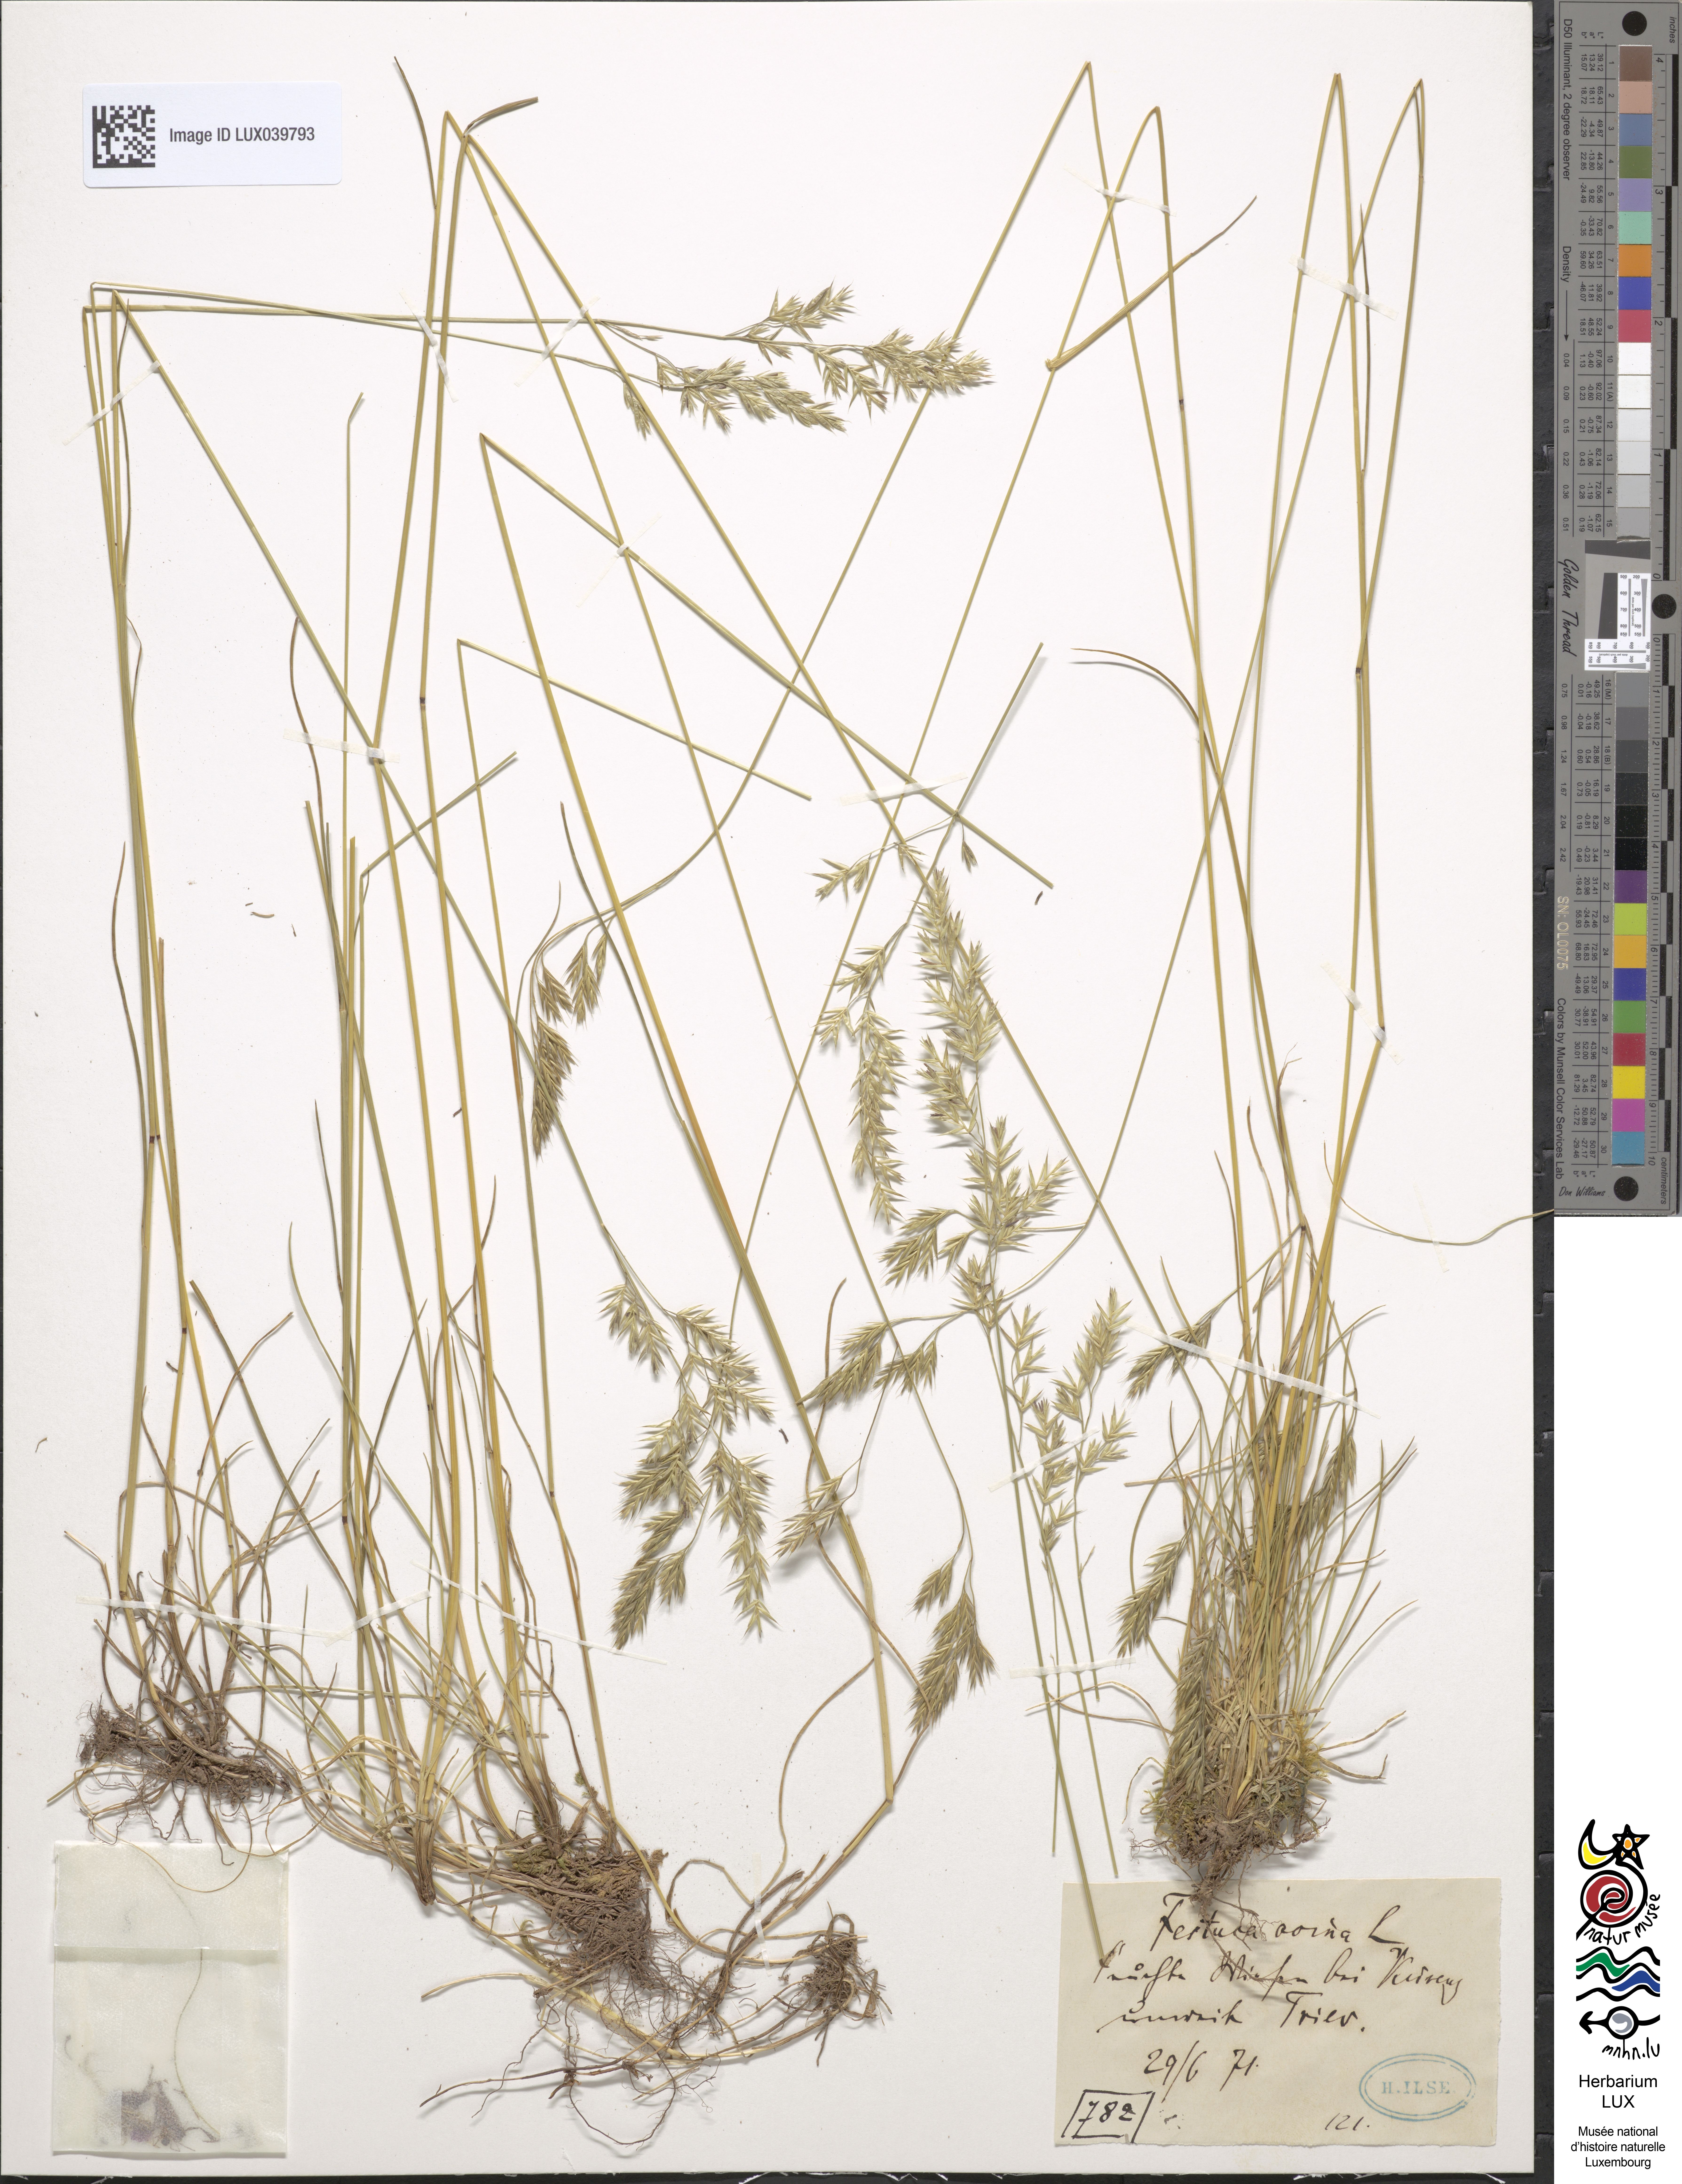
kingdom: Plantae
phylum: Tracheophyta
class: Liliopsida
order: Poales
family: Poaceae
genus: Festuca
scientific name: Festuca ovina
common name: Sheep fescue
